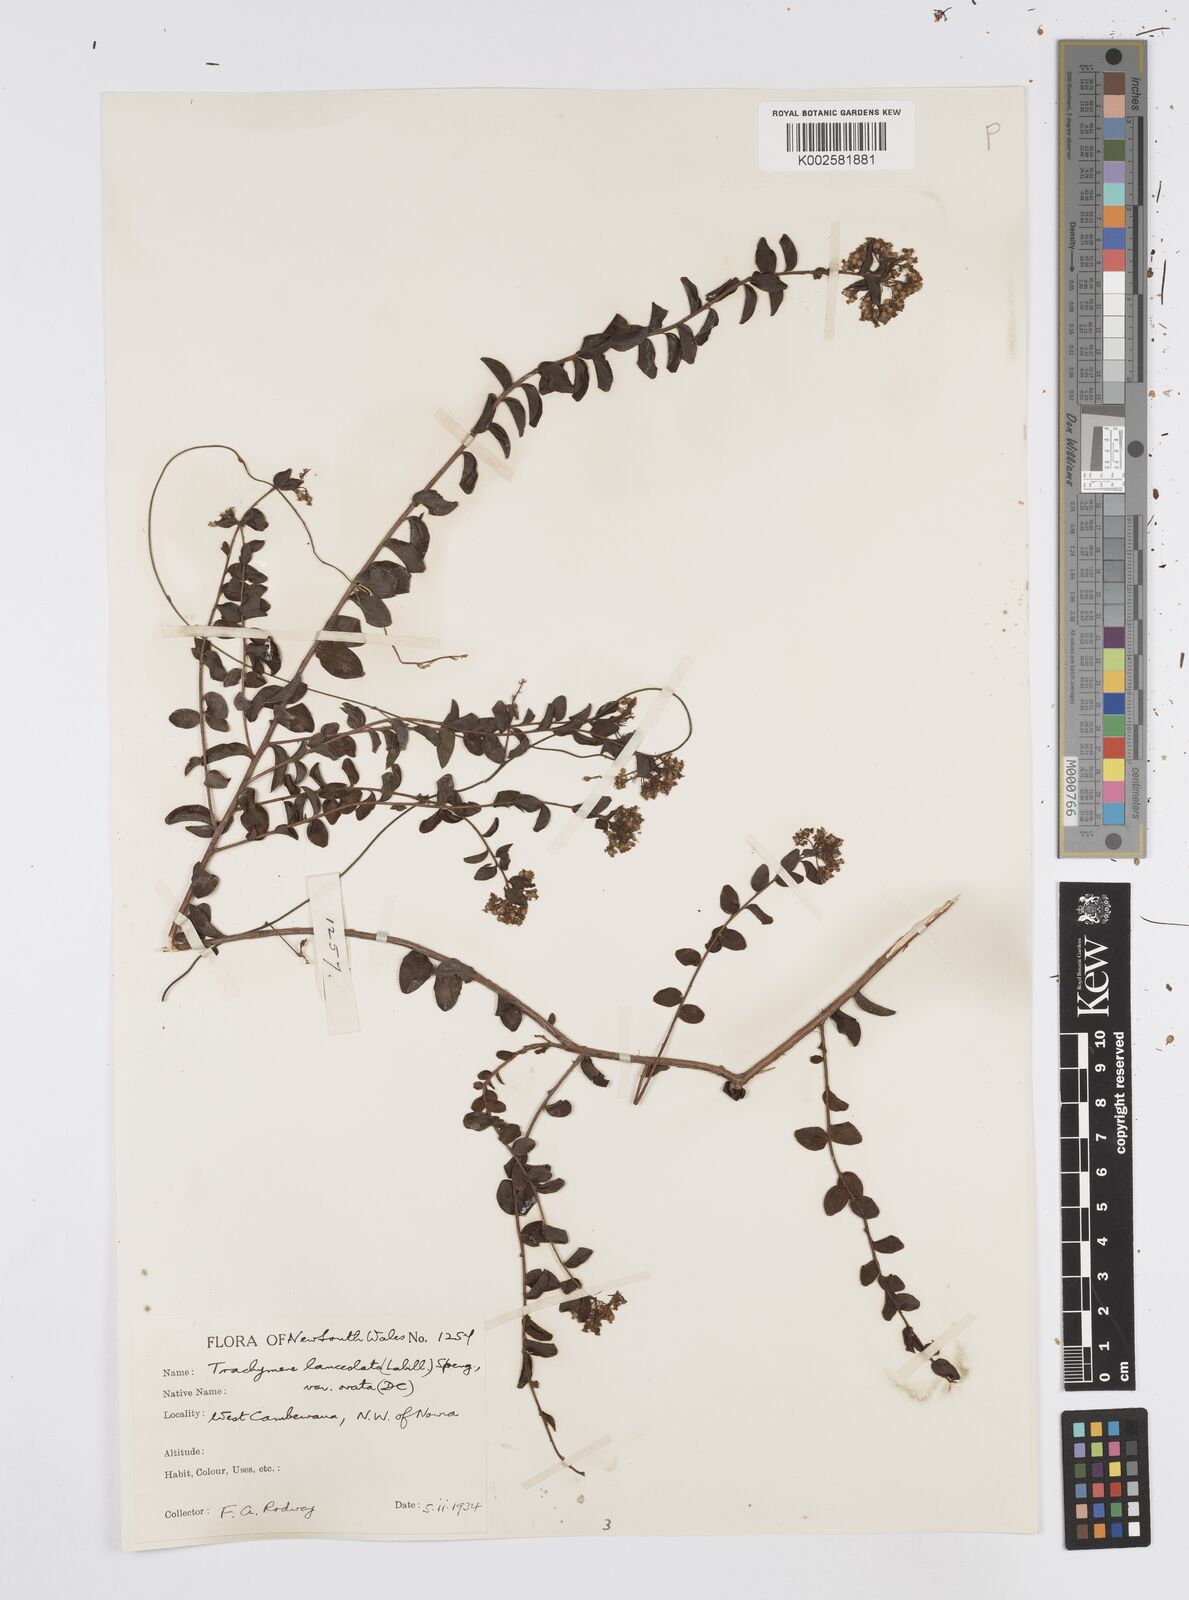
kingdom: Plantae
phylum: Tracheophyta
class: Magnoliopsida
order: Apiales
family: Apiaceae
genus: Platysace
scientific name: Platysace lanceolata
